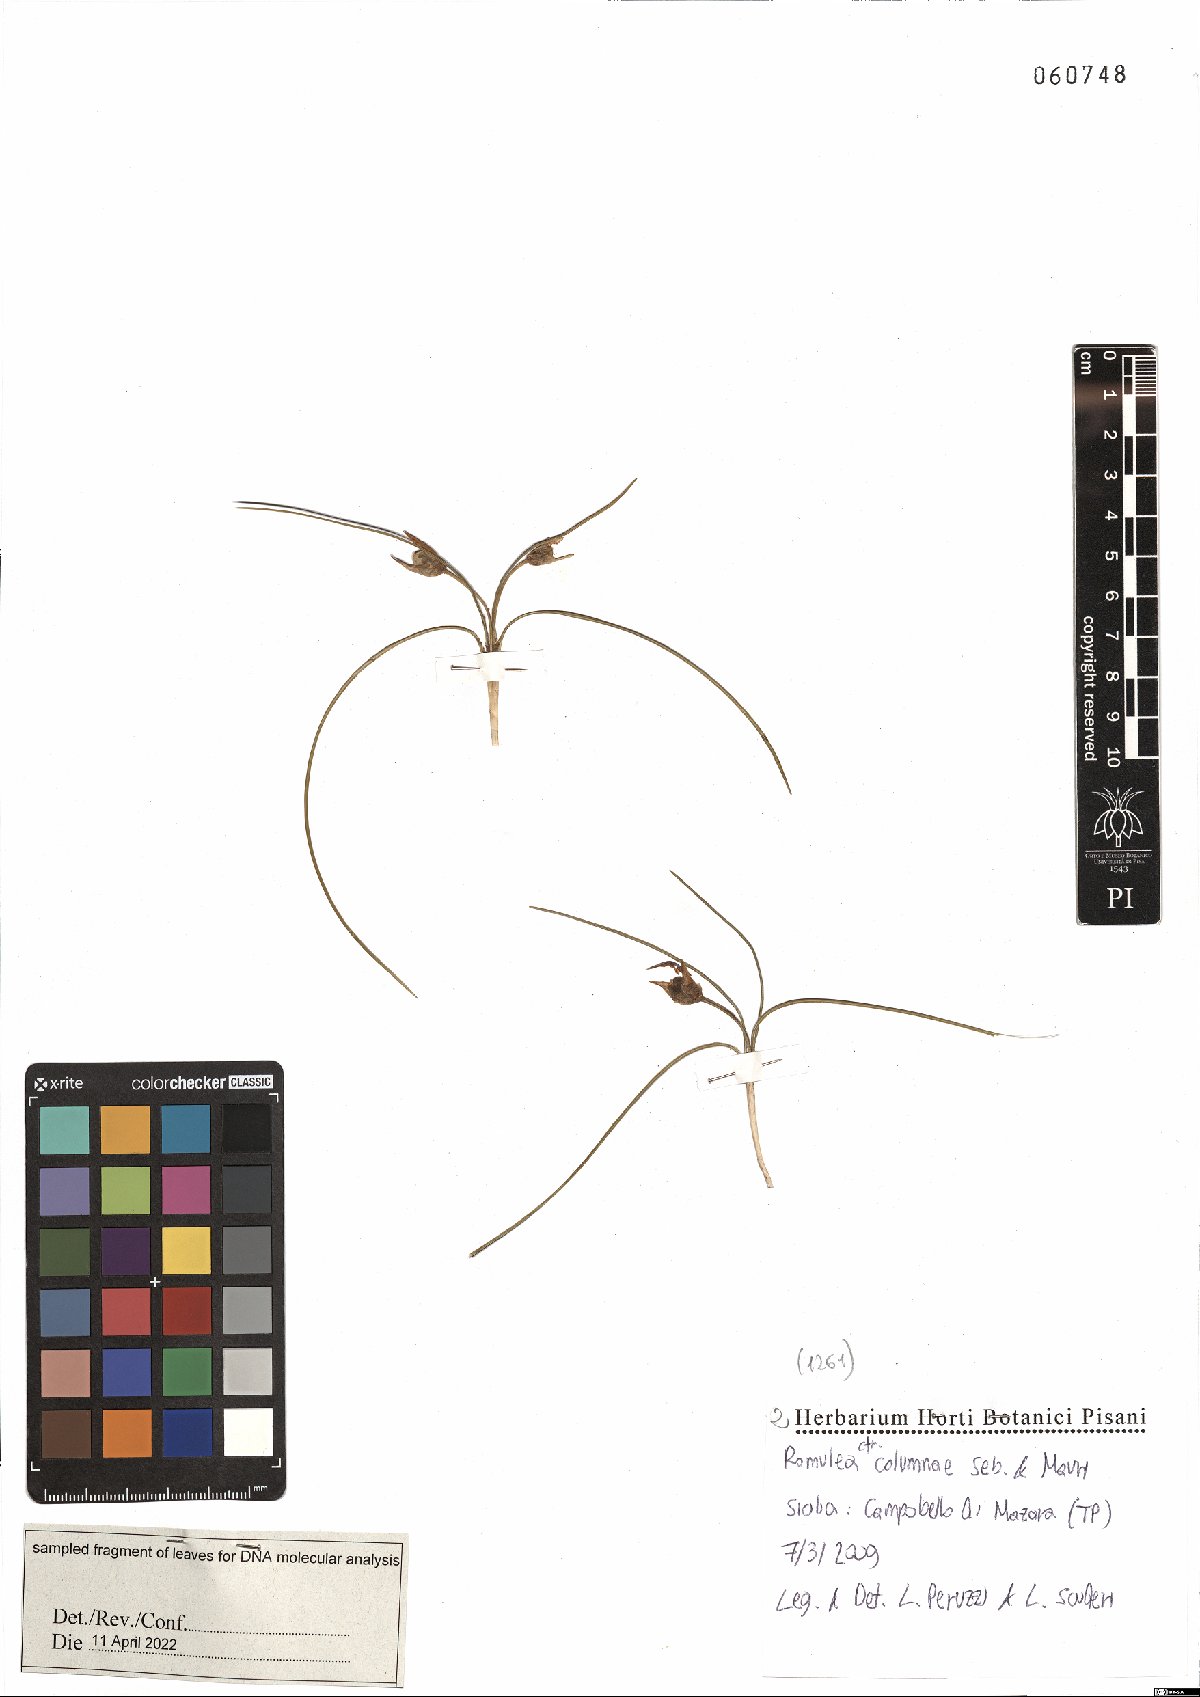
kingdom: Plantae
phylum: Tracheophyta
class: Liliopsida
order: Asparagales
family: Iridaceae
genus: Romulea
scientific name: Romulea columnae
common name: Sand-crocus
